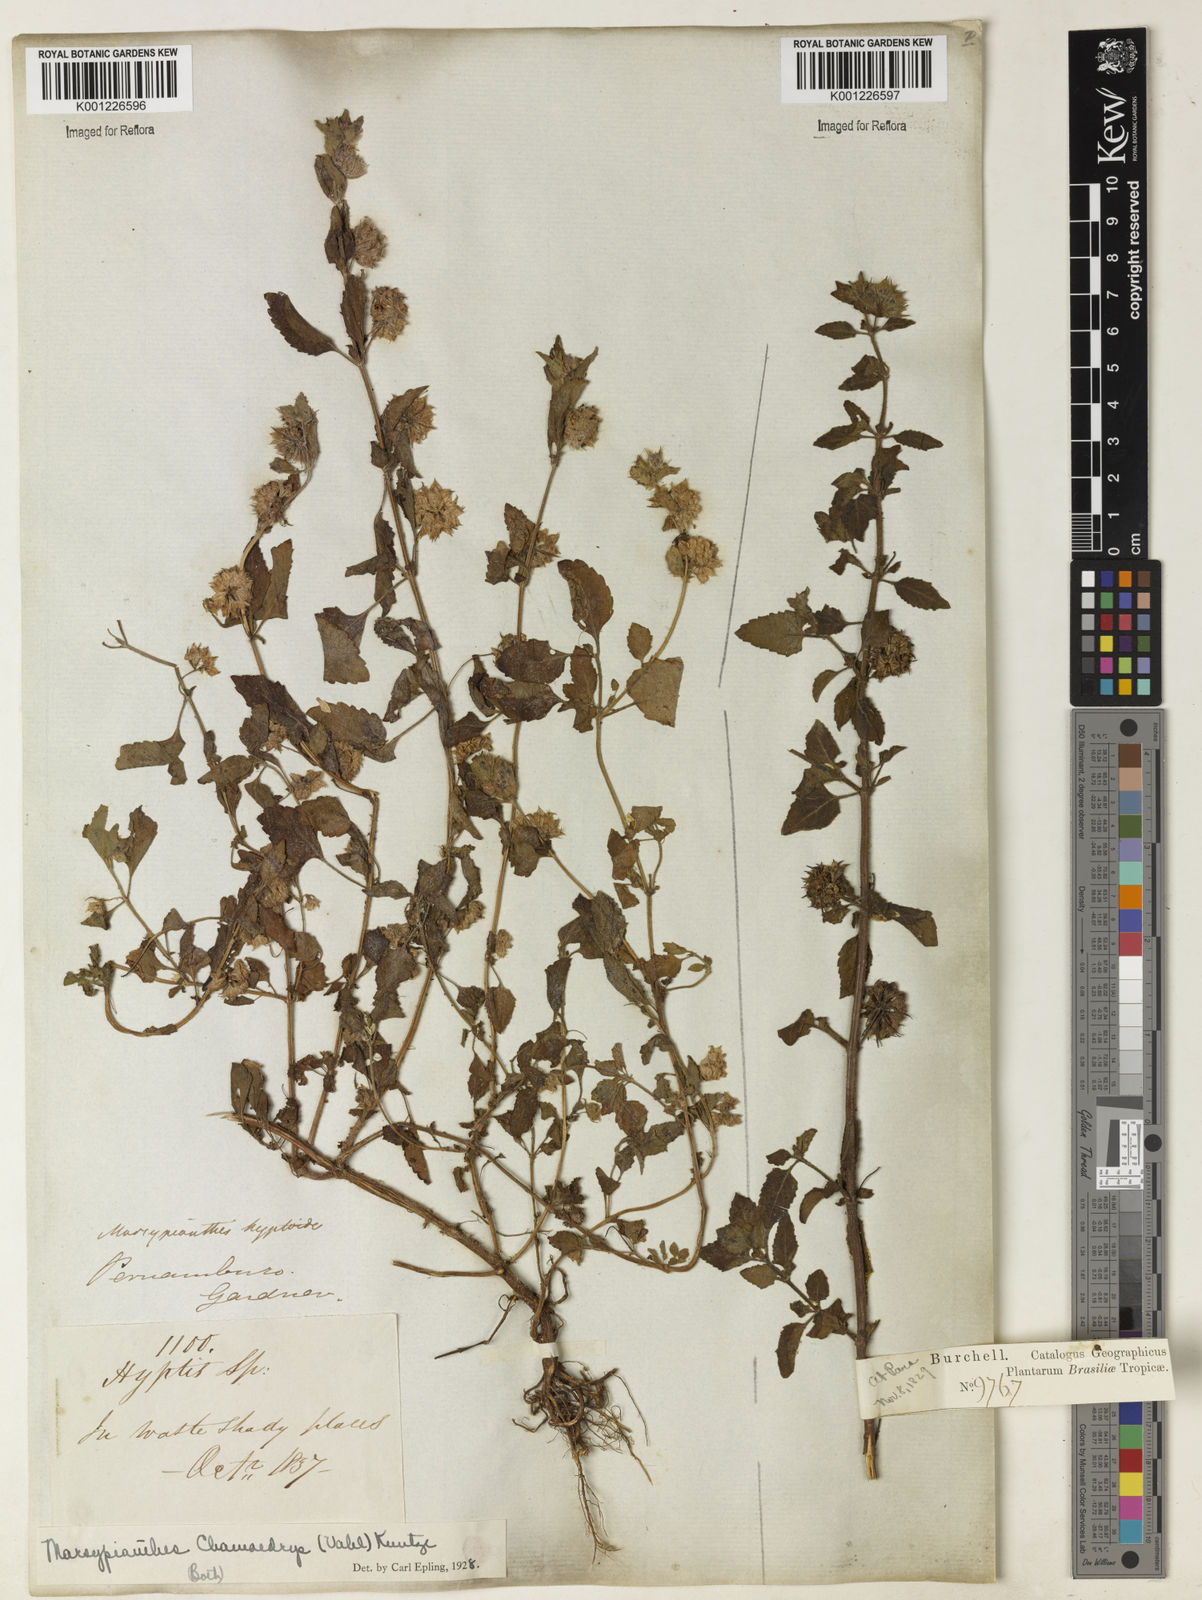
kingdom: Plantae
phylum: Tracheophyta
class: Magnoliopsida
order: Lamiales
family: Lamiaceae
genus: Marsypianthes
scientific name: Marsypianthes chamaedrys
